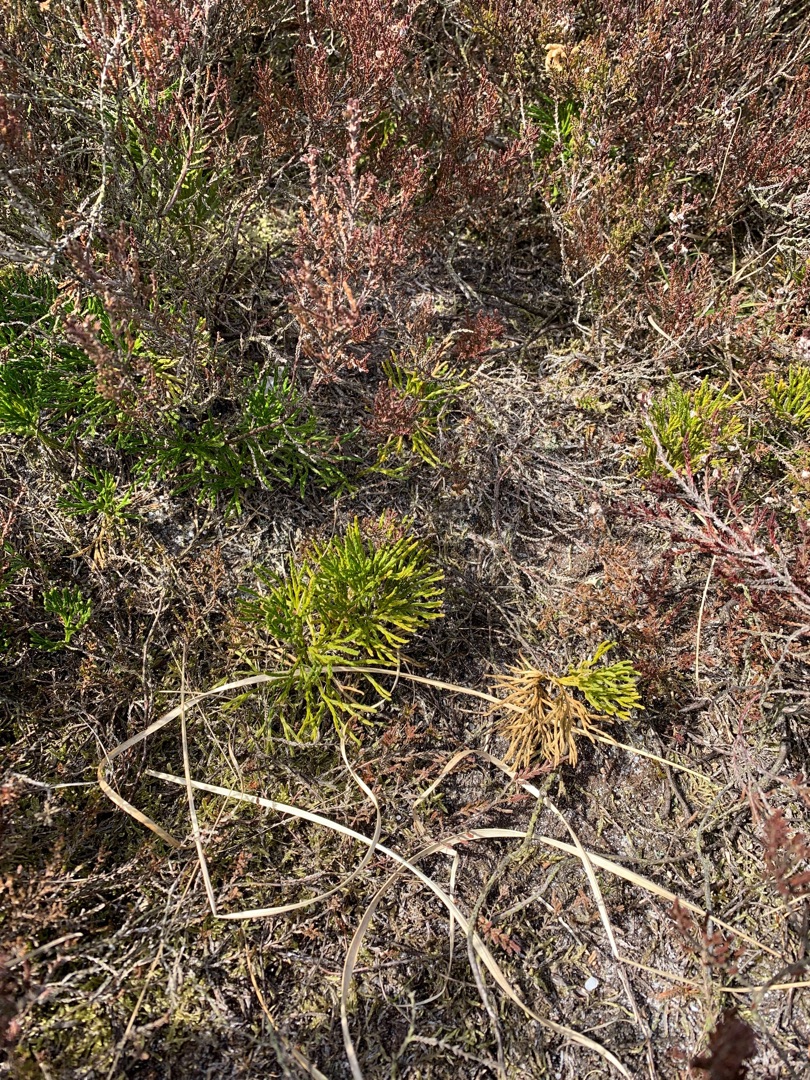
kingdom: Plantae
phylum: Tracheophyta
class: Lycopodiopsida
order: Lycopodiales
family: Lycopodiaceae
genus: Diphasiastrum
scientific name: Diphasiastrum tristachyum
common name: Cypres-ulvefod
